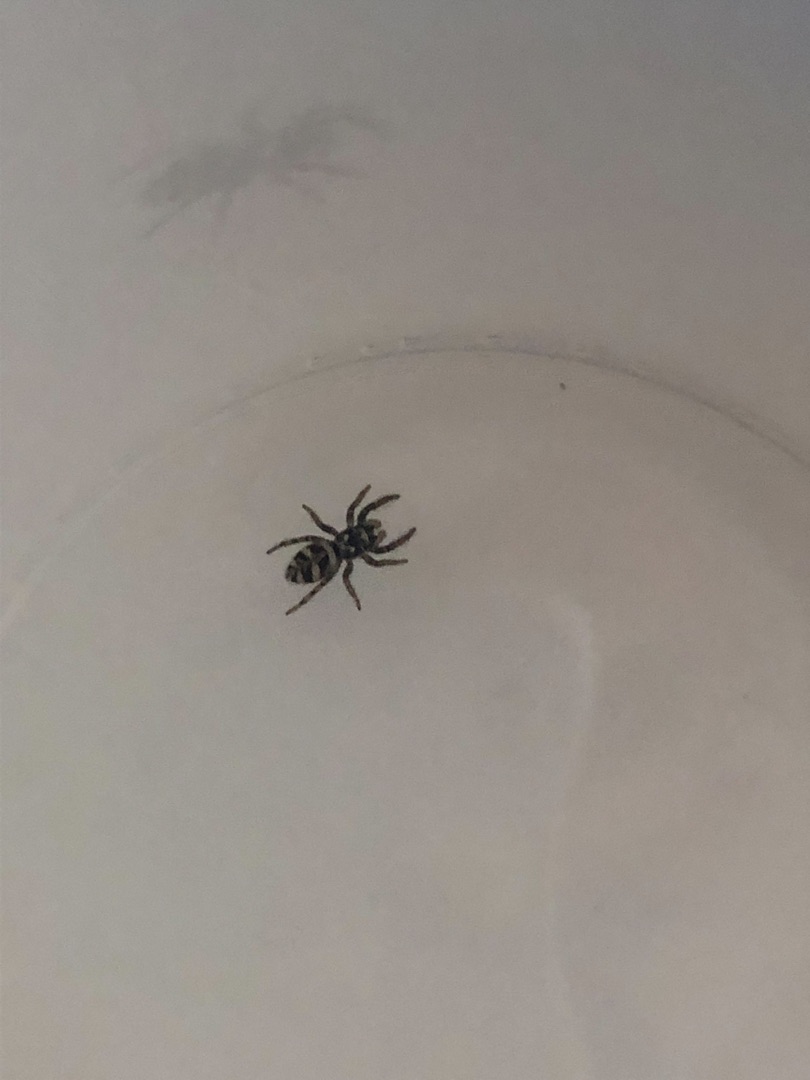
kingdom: Animalia
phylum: Arthropoda
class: Arachnida
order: Araneae
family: Salticidae
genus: Salticus
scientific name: Salticus scenicus
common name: Almindelig zebraedderkop
